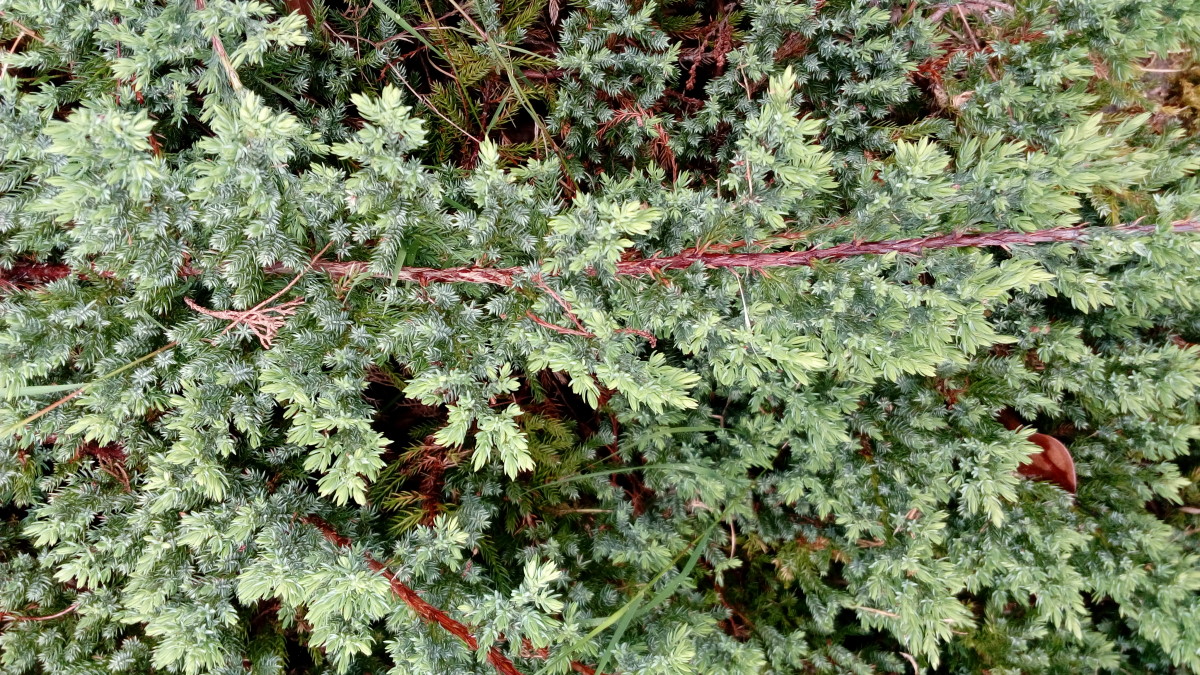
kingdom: Plantae
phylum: Tracheophyta
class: Pinopsida
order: Pinales
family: Cupressaceae
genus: Juniperus
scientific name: Juniperus chinensis
